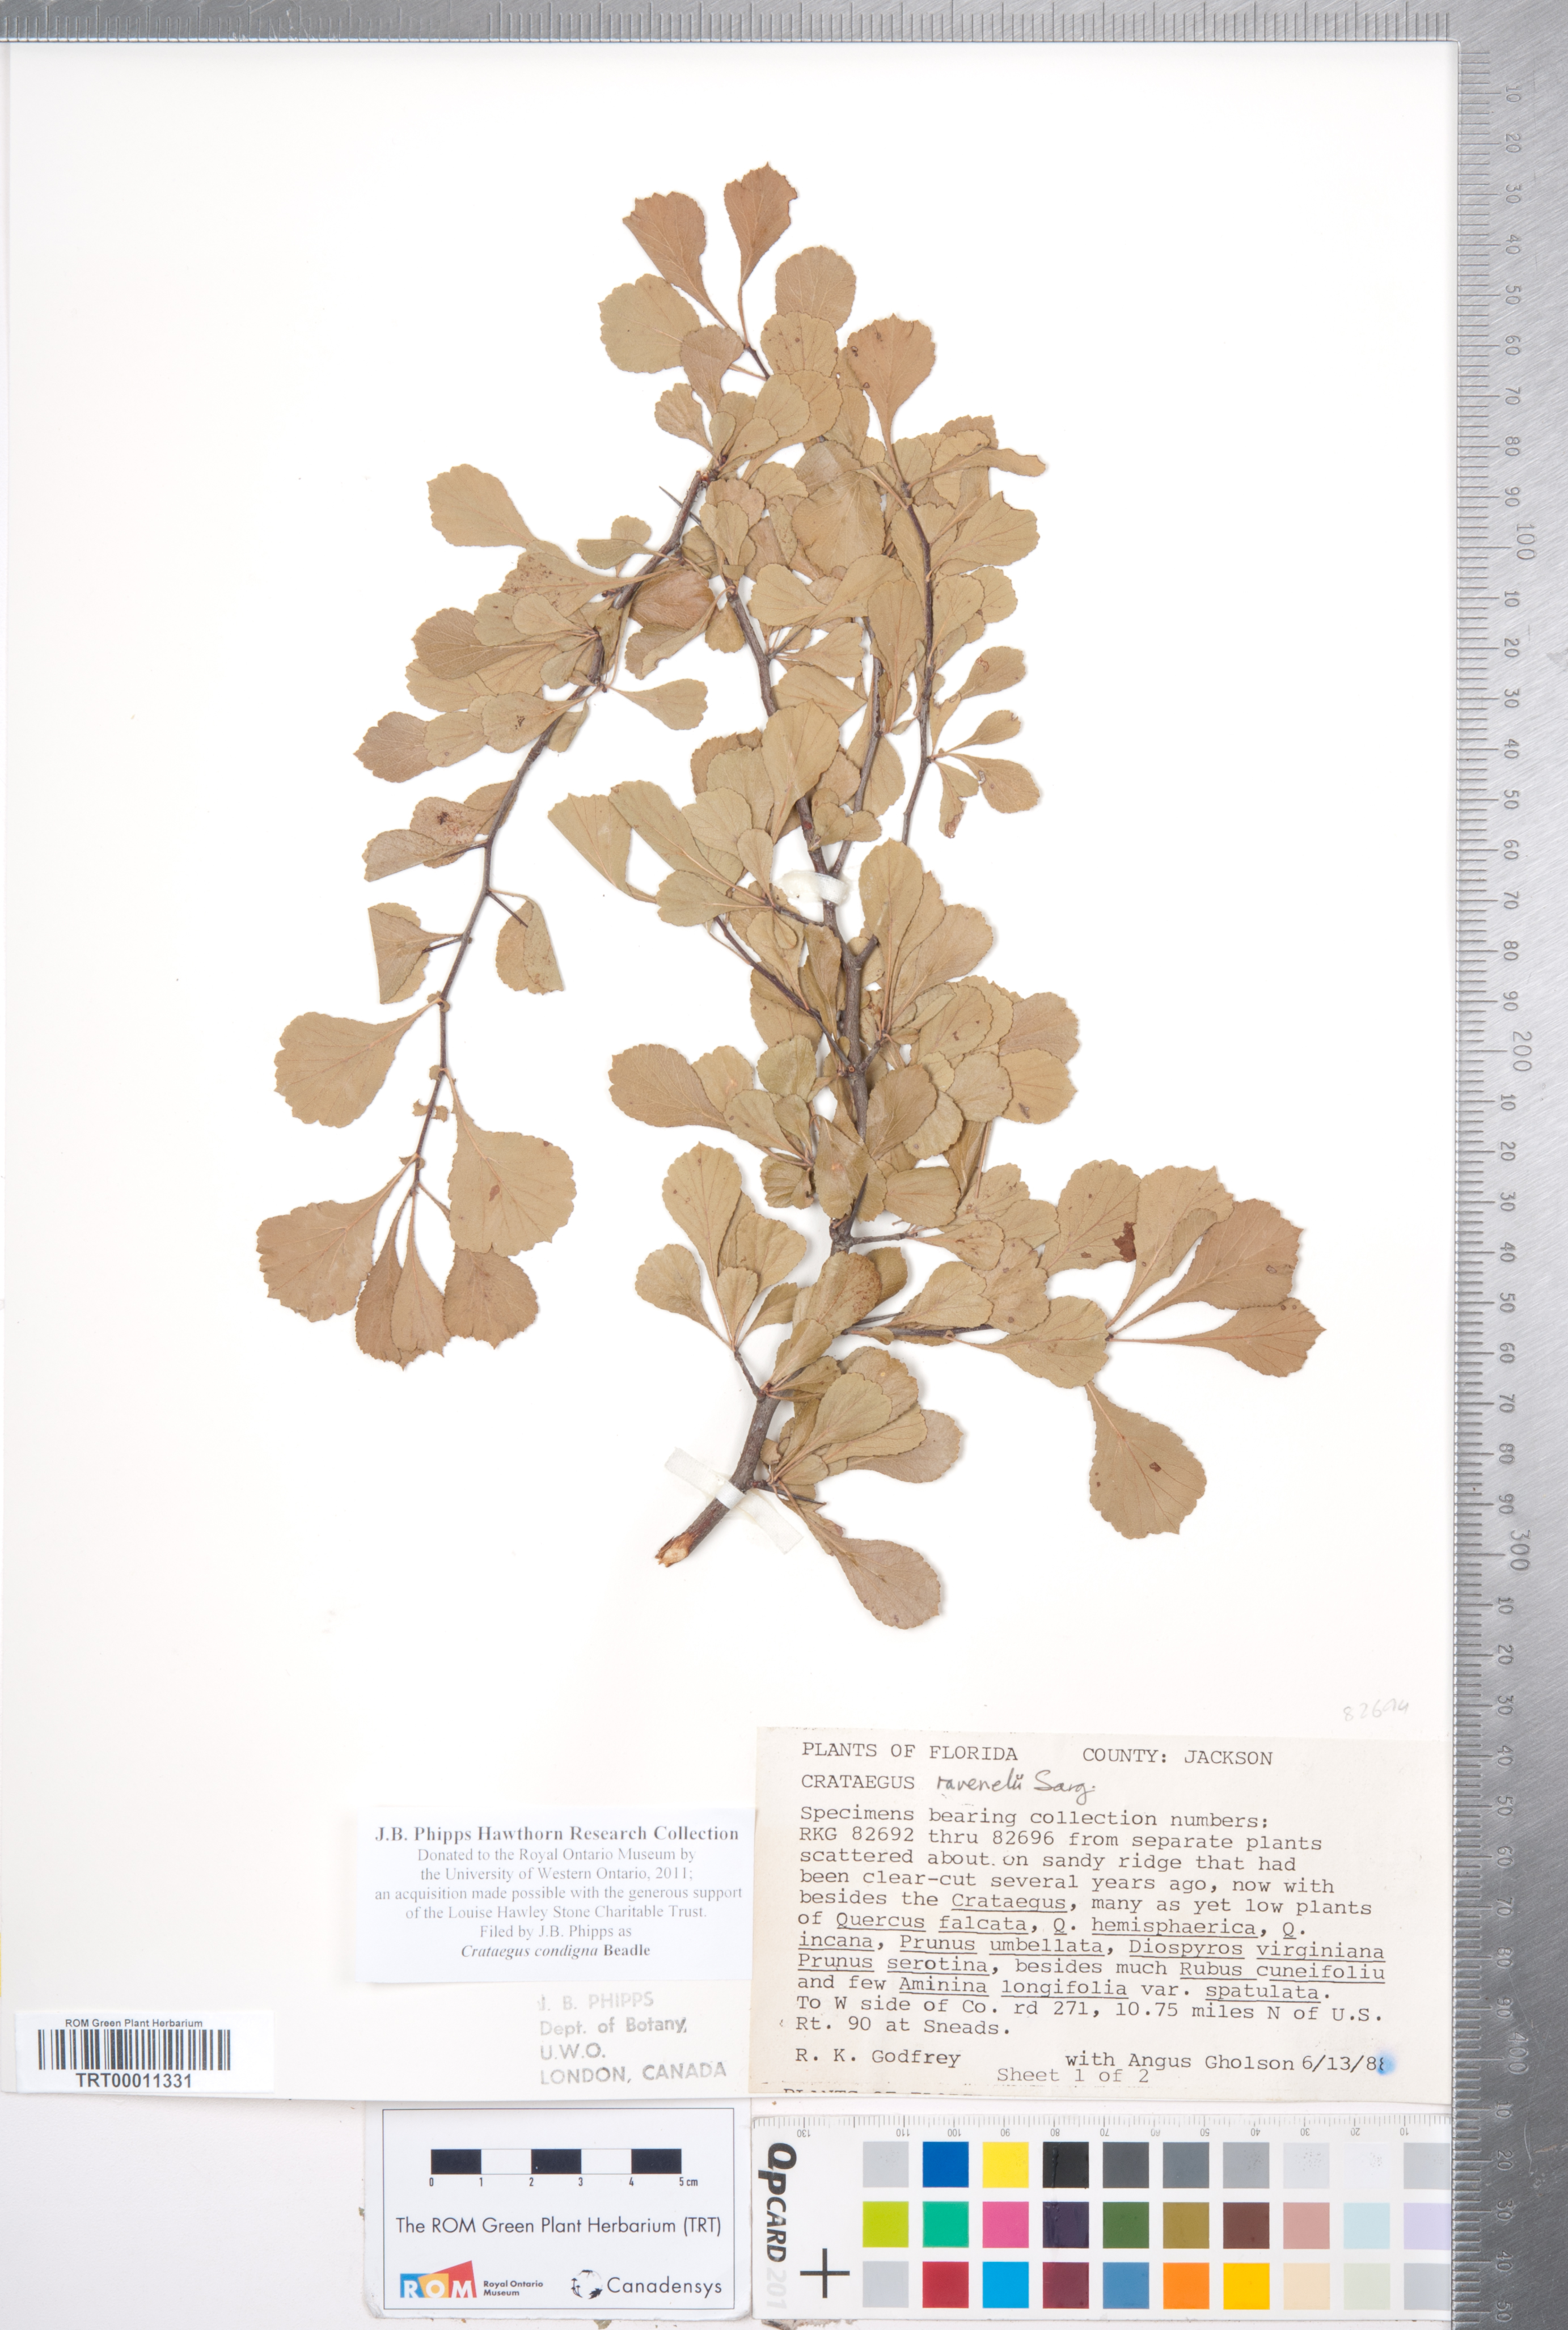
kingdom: Plantae
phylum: Tracheophyta
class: Magnoliopsida
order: Rosales
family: Rosaceae
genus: Crataegus
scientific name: Crataegus condigna
